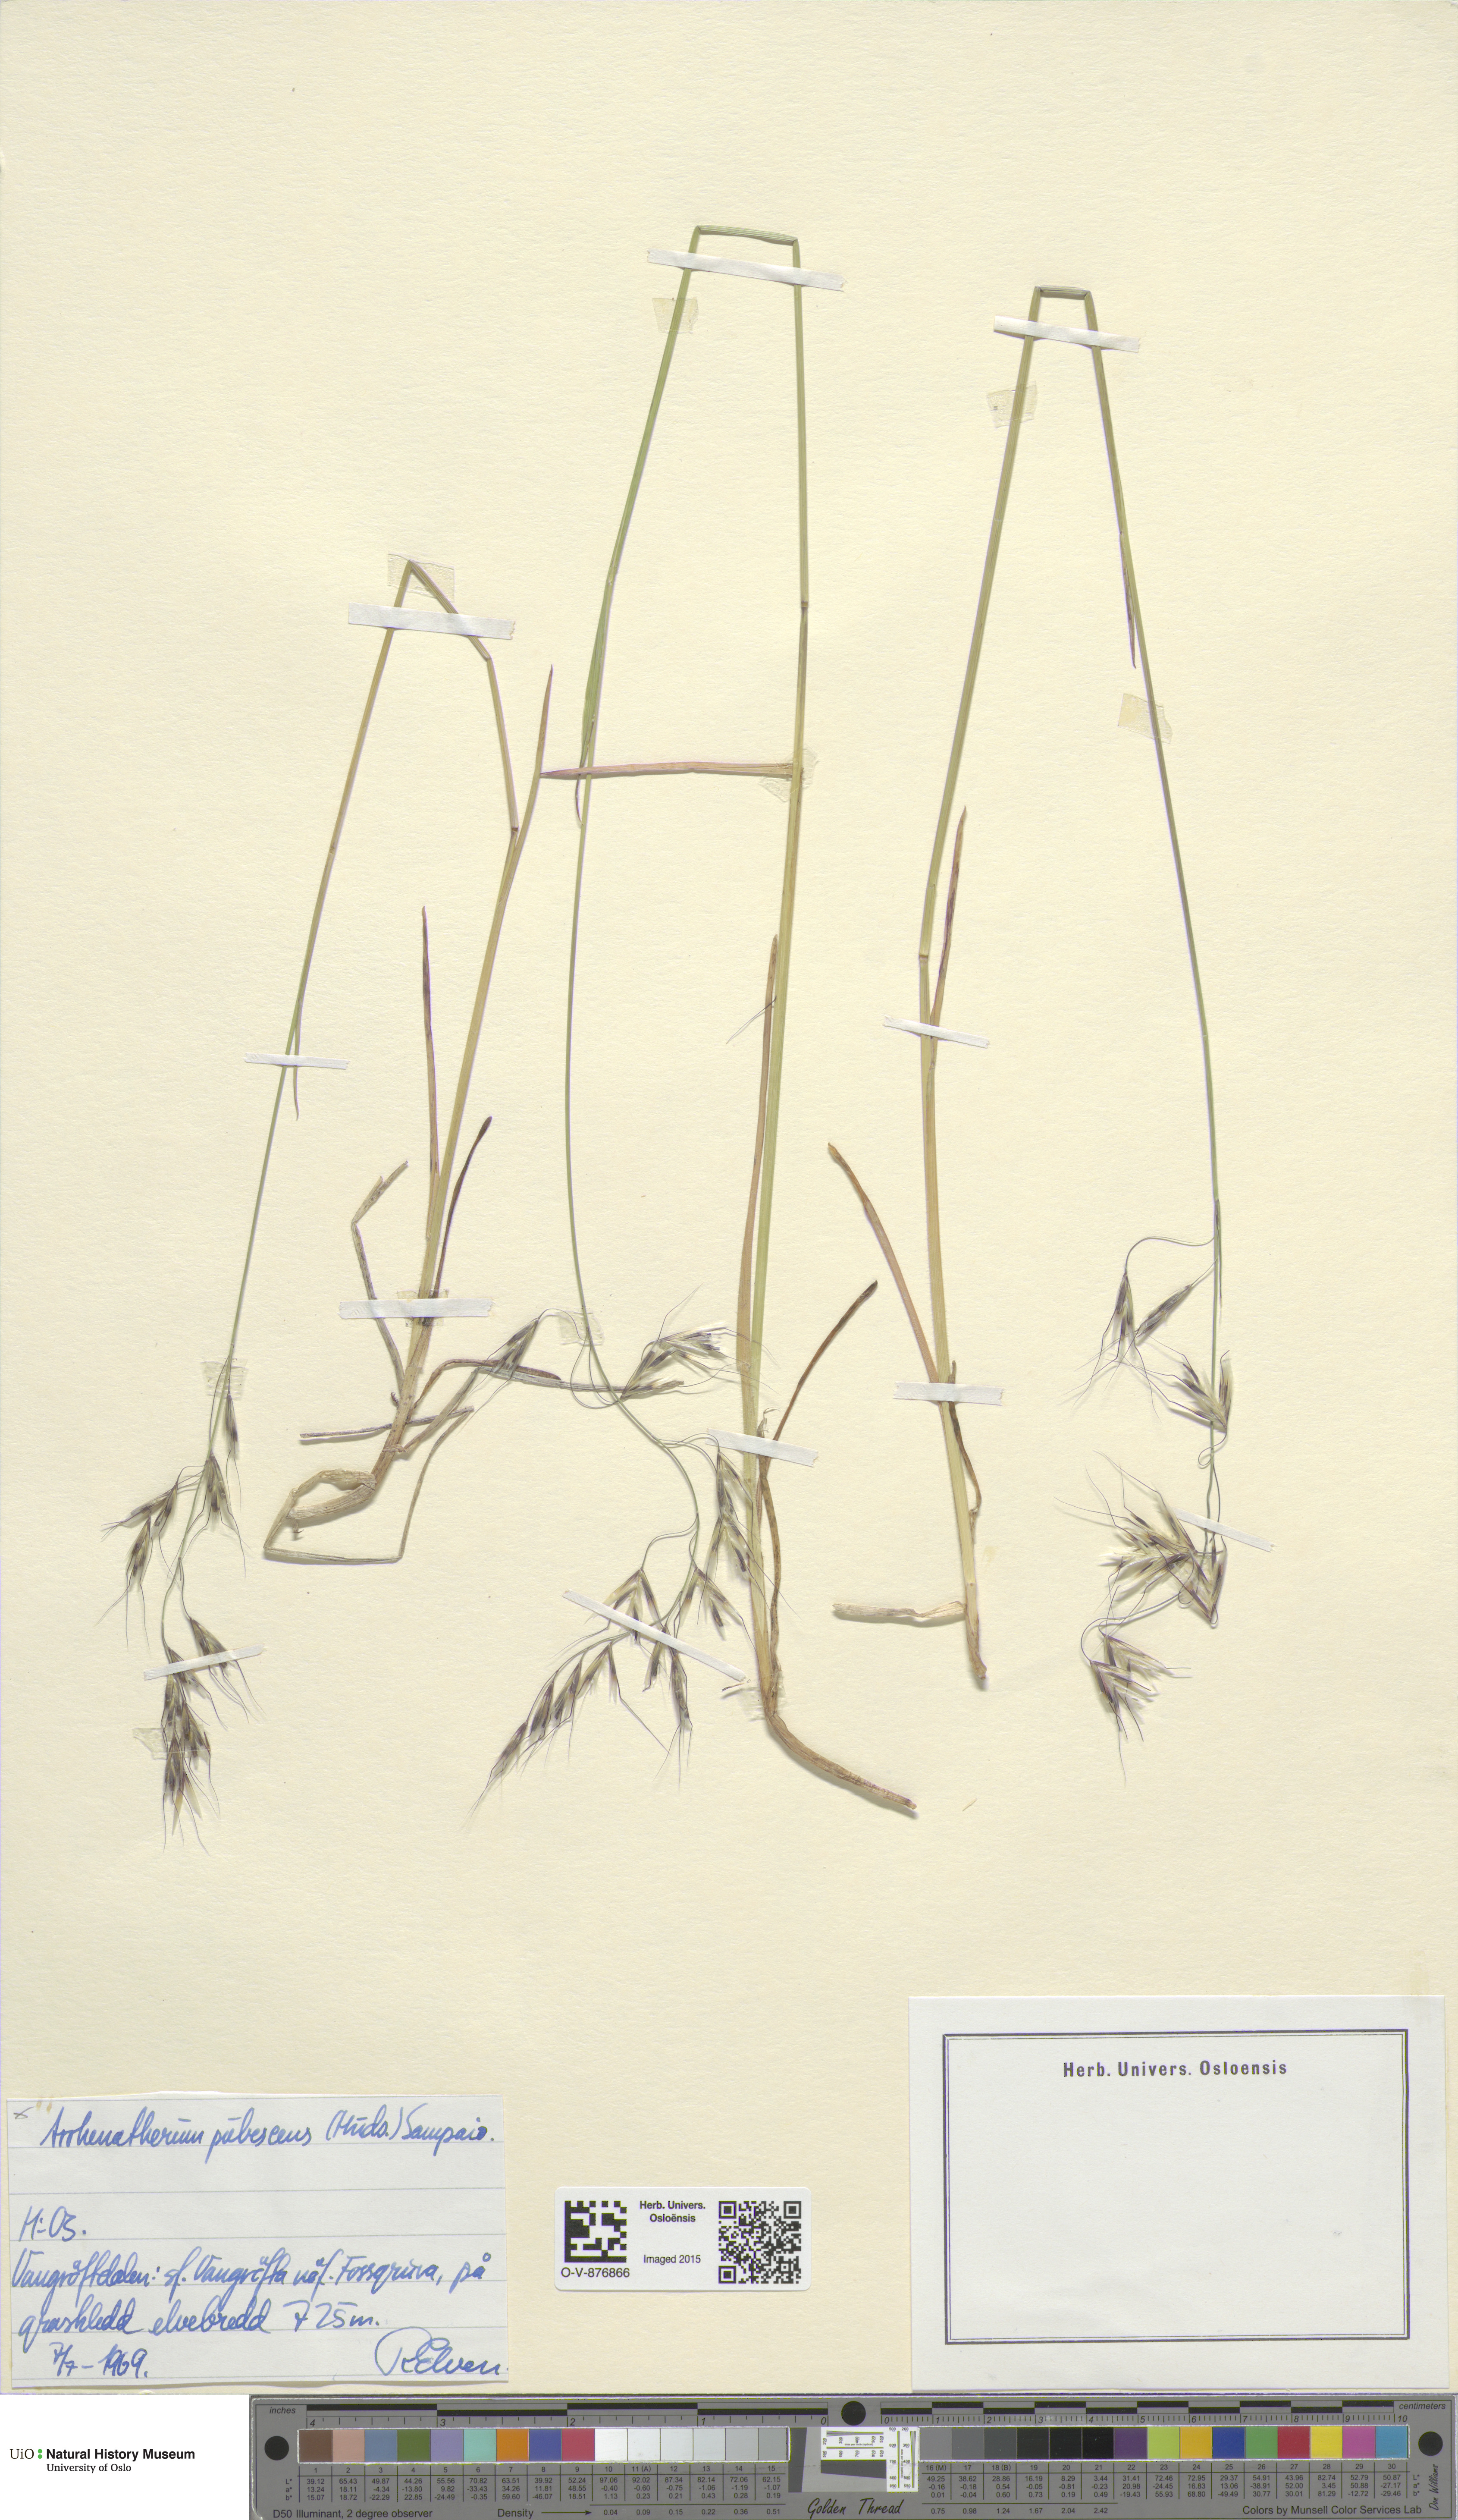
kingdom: Plantae
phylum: Tracheophyta
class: Liliopsida
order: Poales
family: Poaceae
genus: Avenula
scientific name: Avenula pubescens
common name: Downy alpine oatgrass
